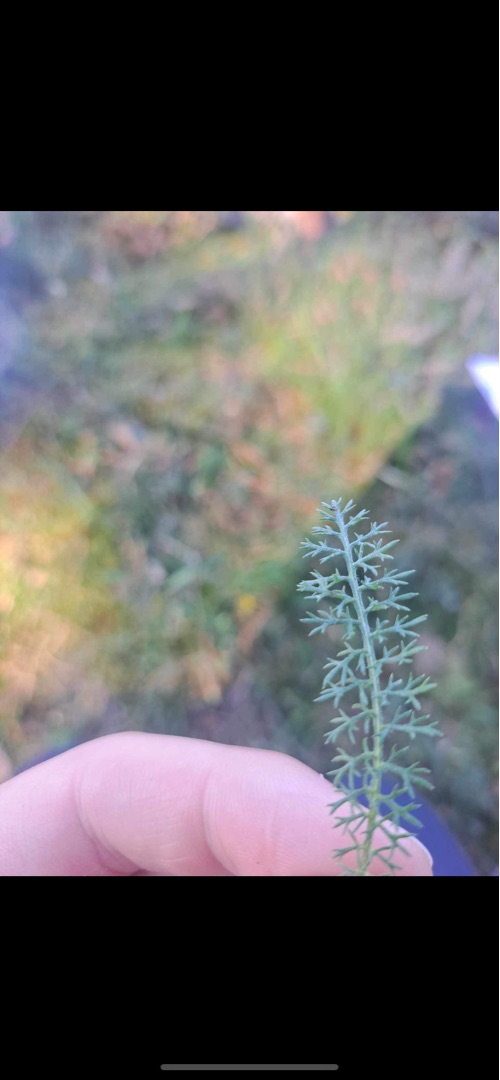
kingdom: Plantae
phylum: Tracheophyta
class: Magnoliopsida
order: Asterales
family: Asteraceae
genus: Achillea
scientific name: Achillea millefolium
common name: Almindelig røllike
